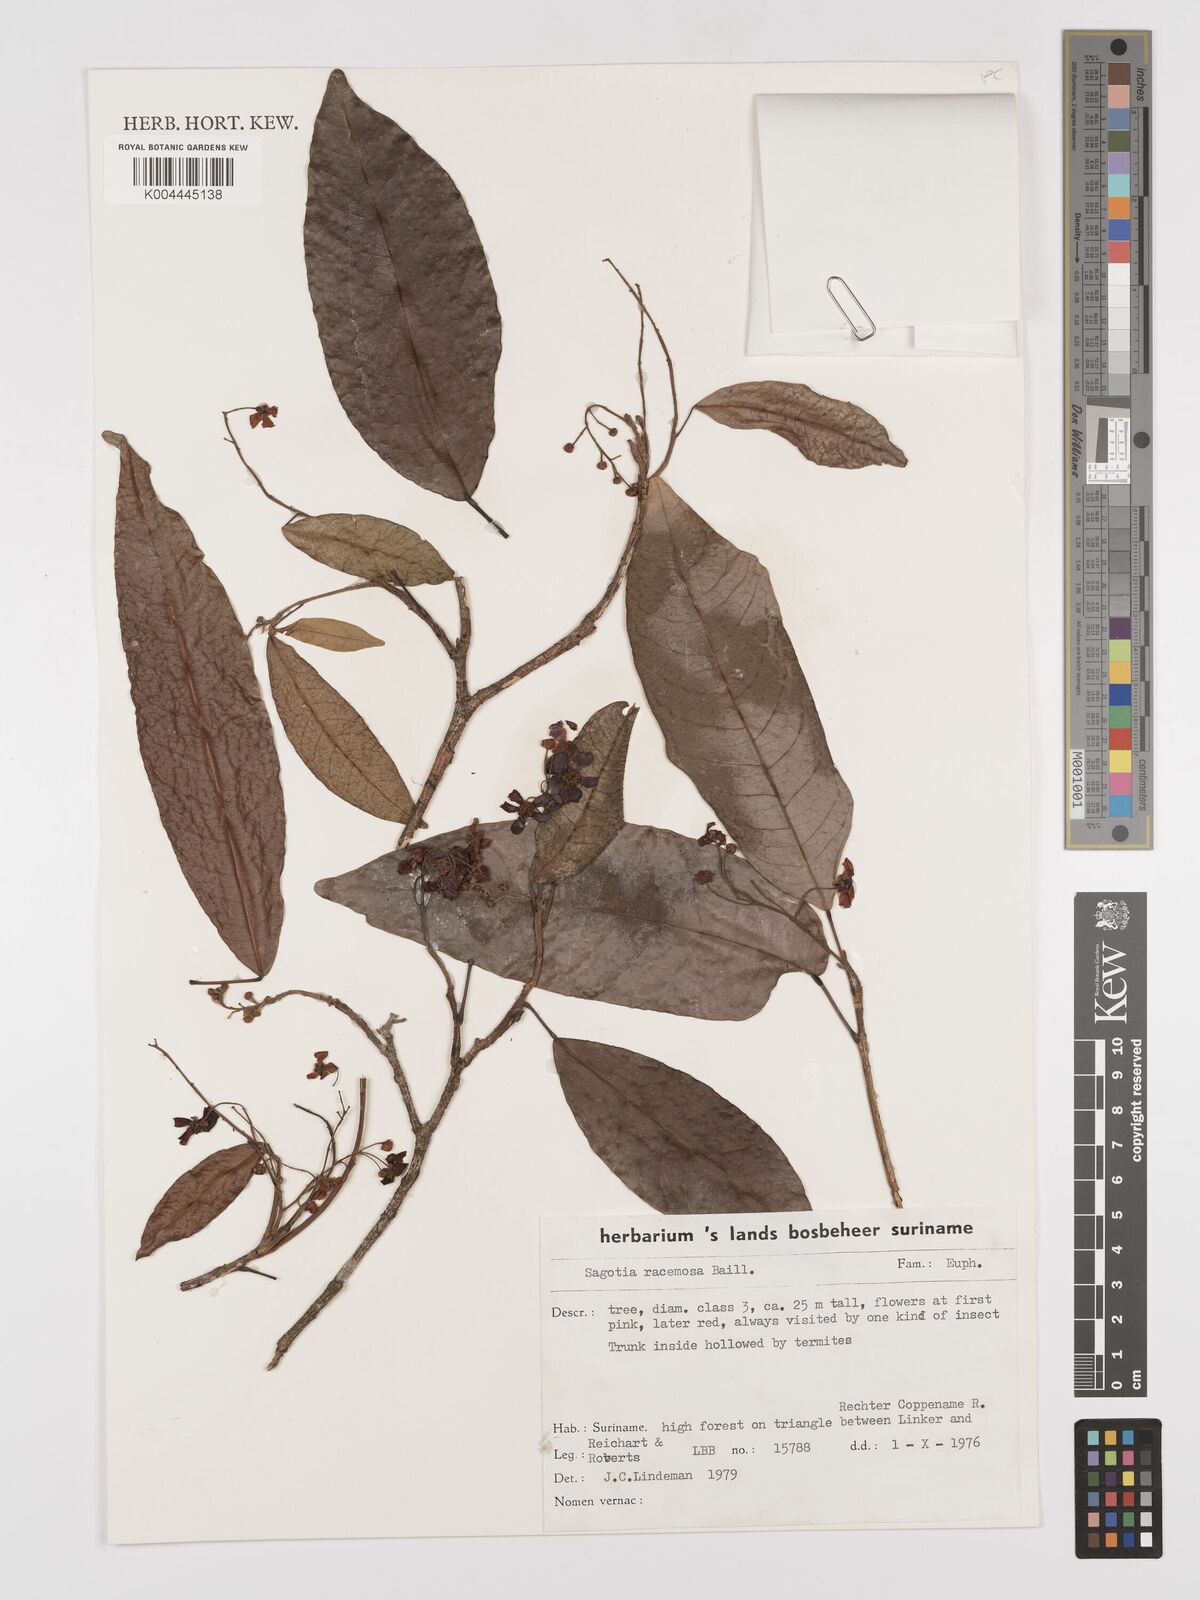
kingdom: Plantae
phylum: Tracheophyta
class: Magnoliopsida
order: Malpighiales
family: Euphorbiaceae
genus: Sagotia
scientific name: Sagotia racemosa
